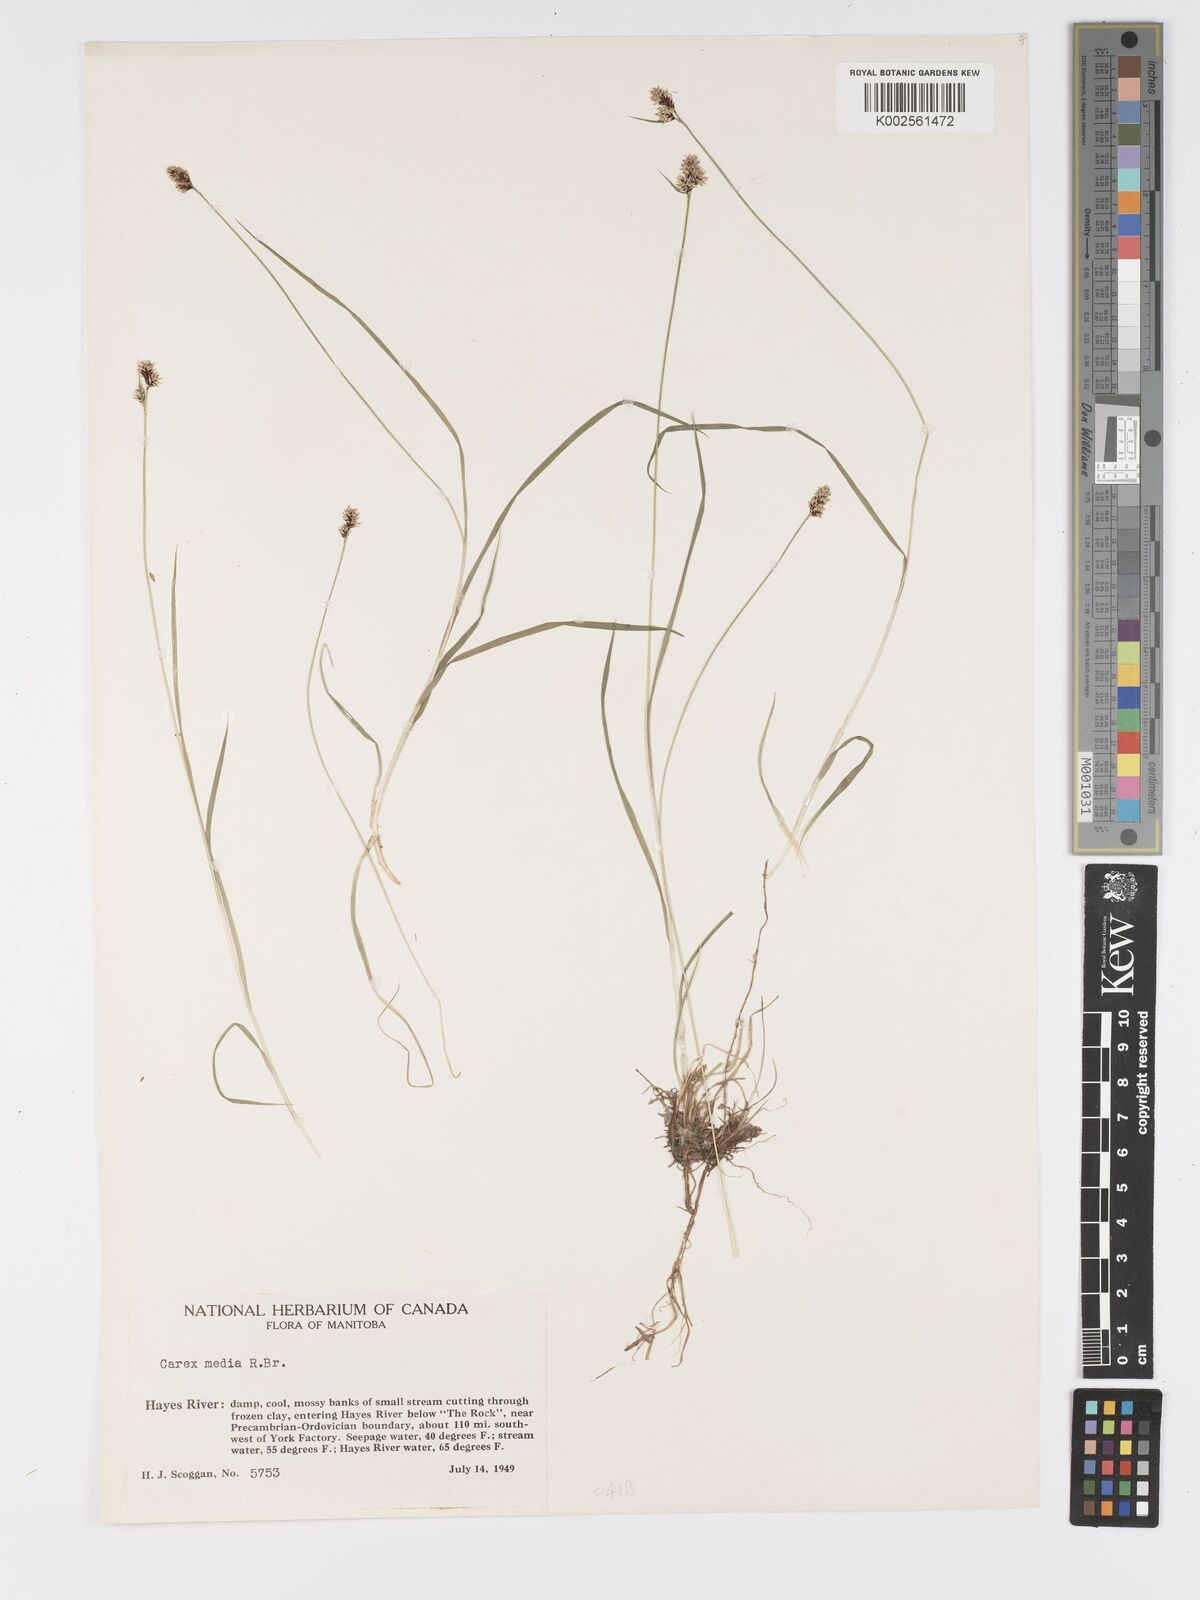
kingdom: Plantae
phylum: Tracheophyta
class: Liliopsida
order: Poales
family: Cyperaceae
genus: Carex
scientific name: Carex media
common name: Alpine sedge
